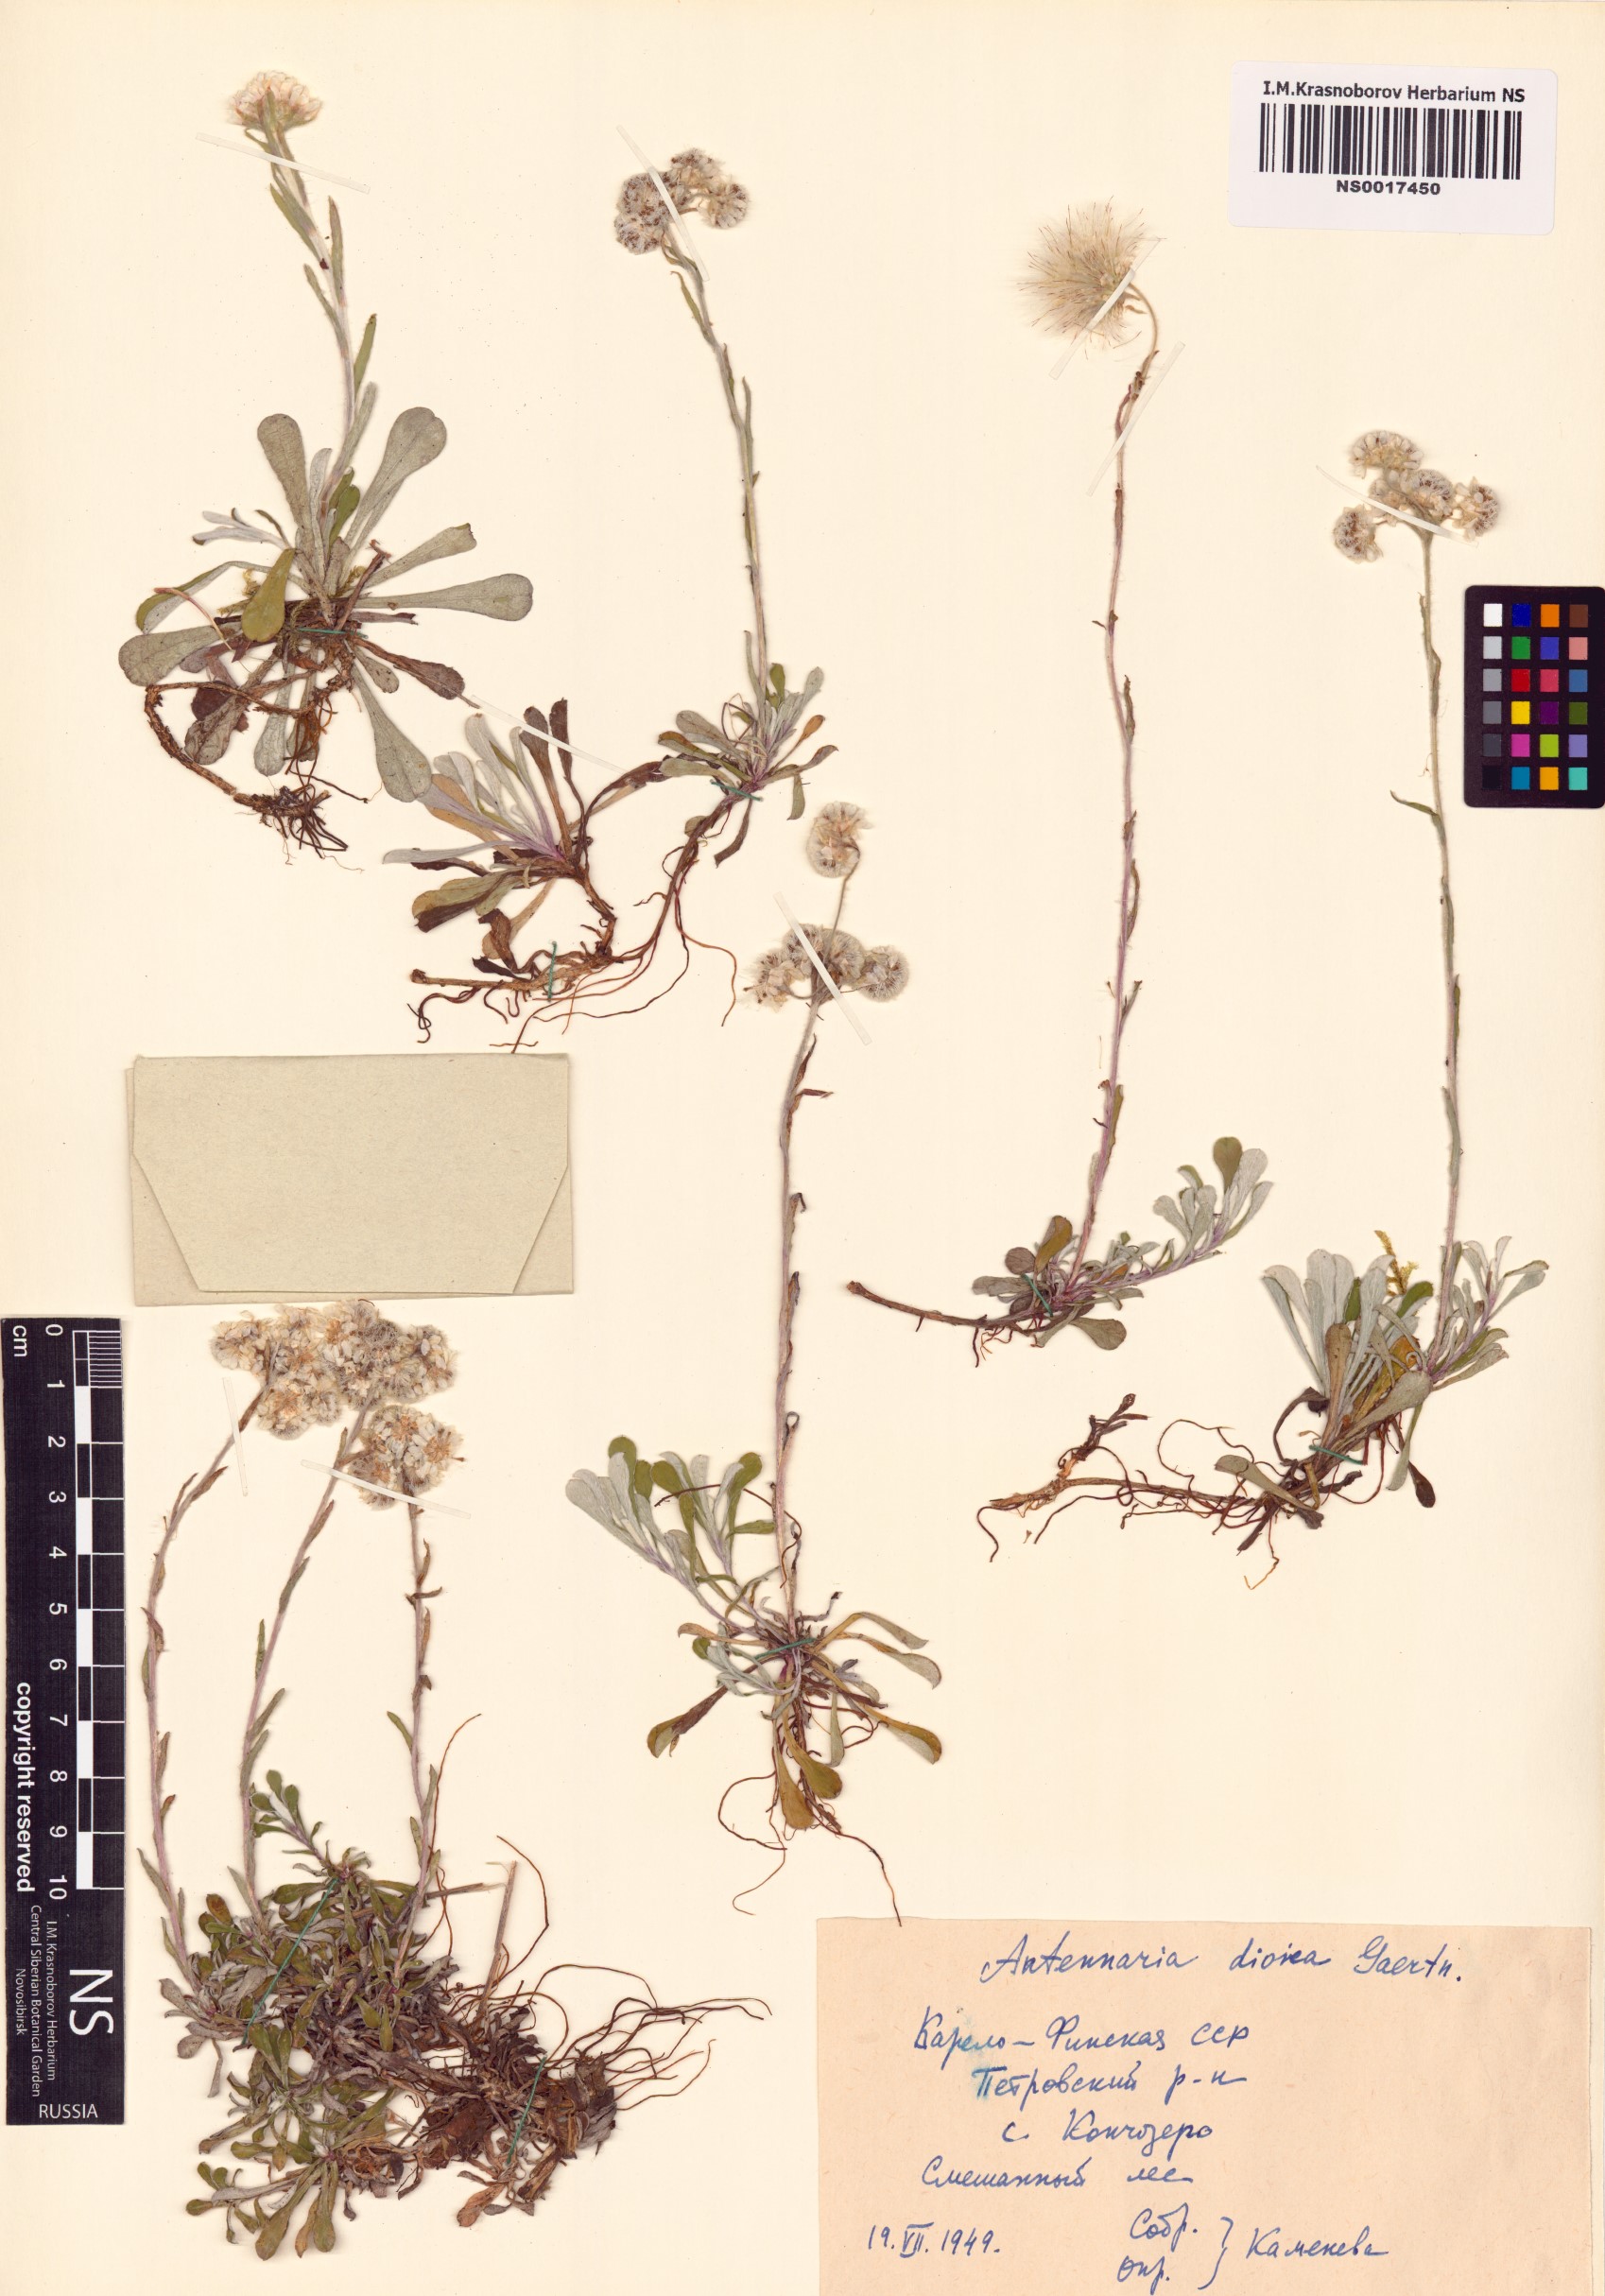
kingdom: Plantae
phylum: Tracheophyta
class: Magnoliopsida
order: Asterales
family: Asteraceae
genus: Antennaria
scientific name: Antennaria dioica
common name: Mountain everlasting
